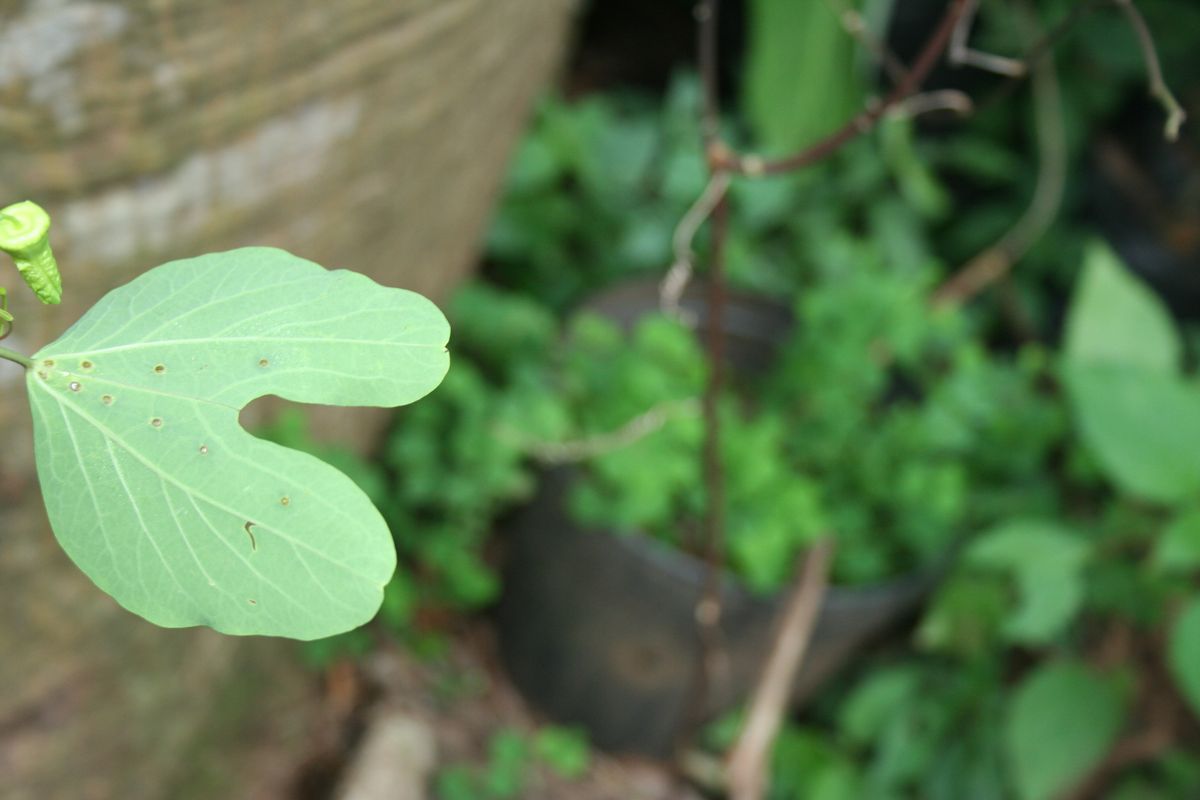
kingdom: Plantae
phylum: Tracheophyta
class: Magnoliopsida
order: Malpighiales
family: Passifloraceae
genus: Passiflora
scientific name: Passiflora jorullensis
